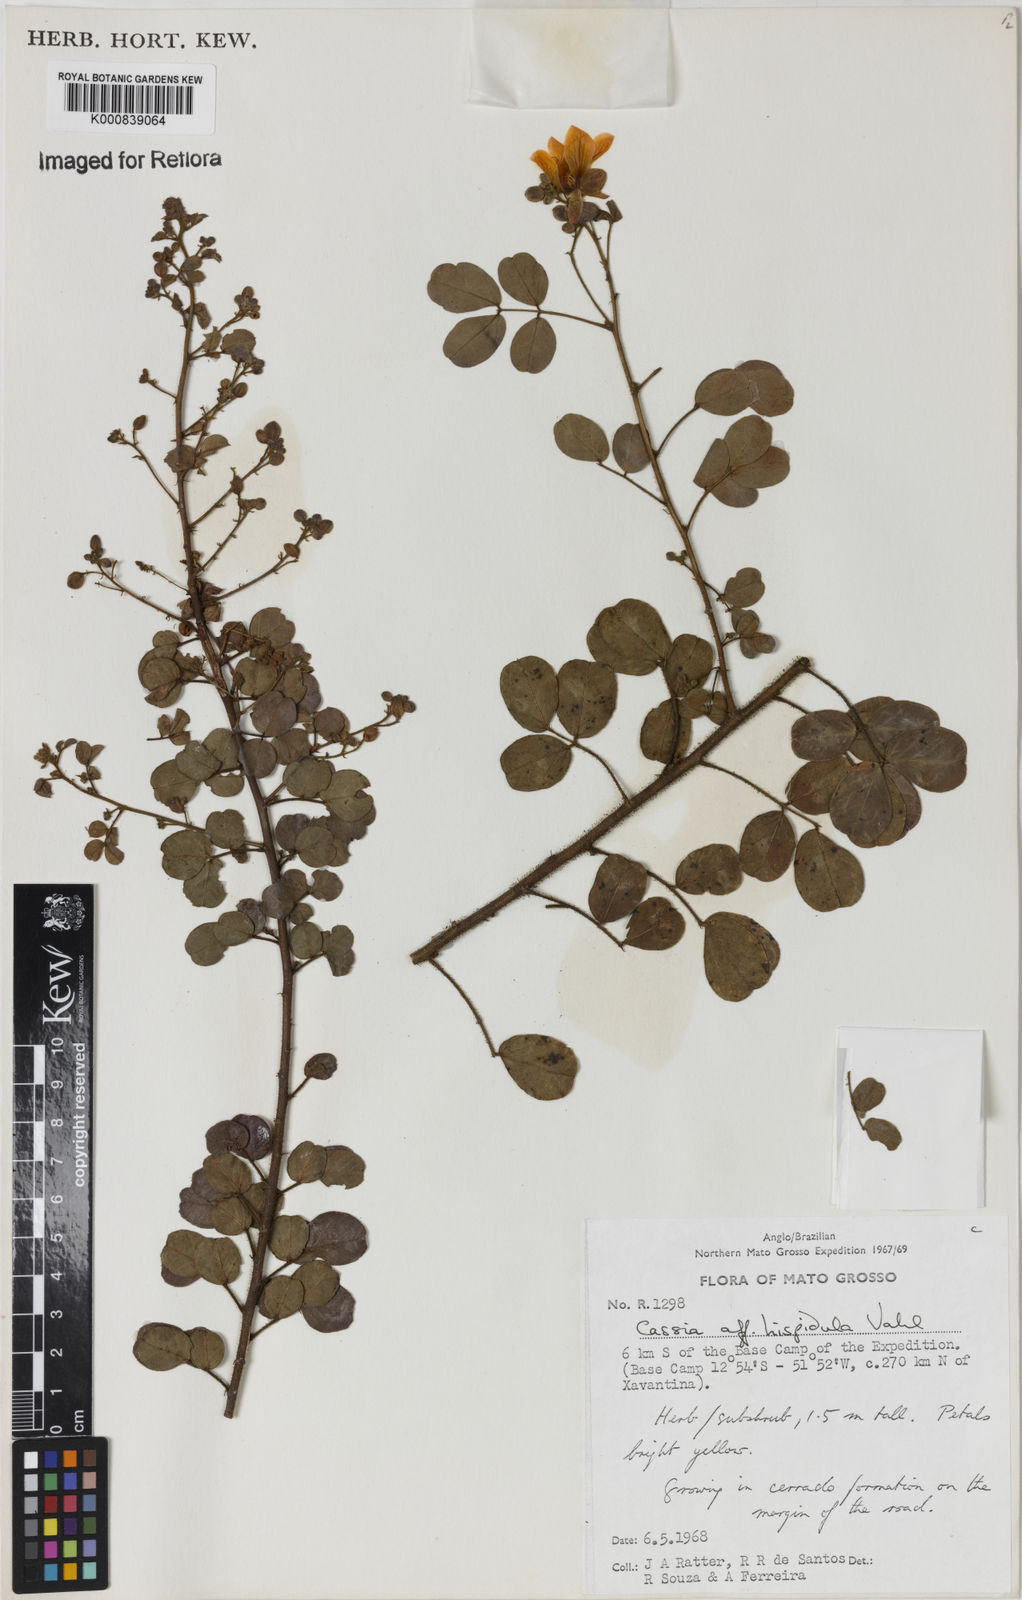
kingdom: Plantae
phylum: Tracheophyta
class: Magnoliopsida
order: Fabales
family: Fabaceae
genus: Chamaecrista
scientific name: Chamaecrista hispidula
